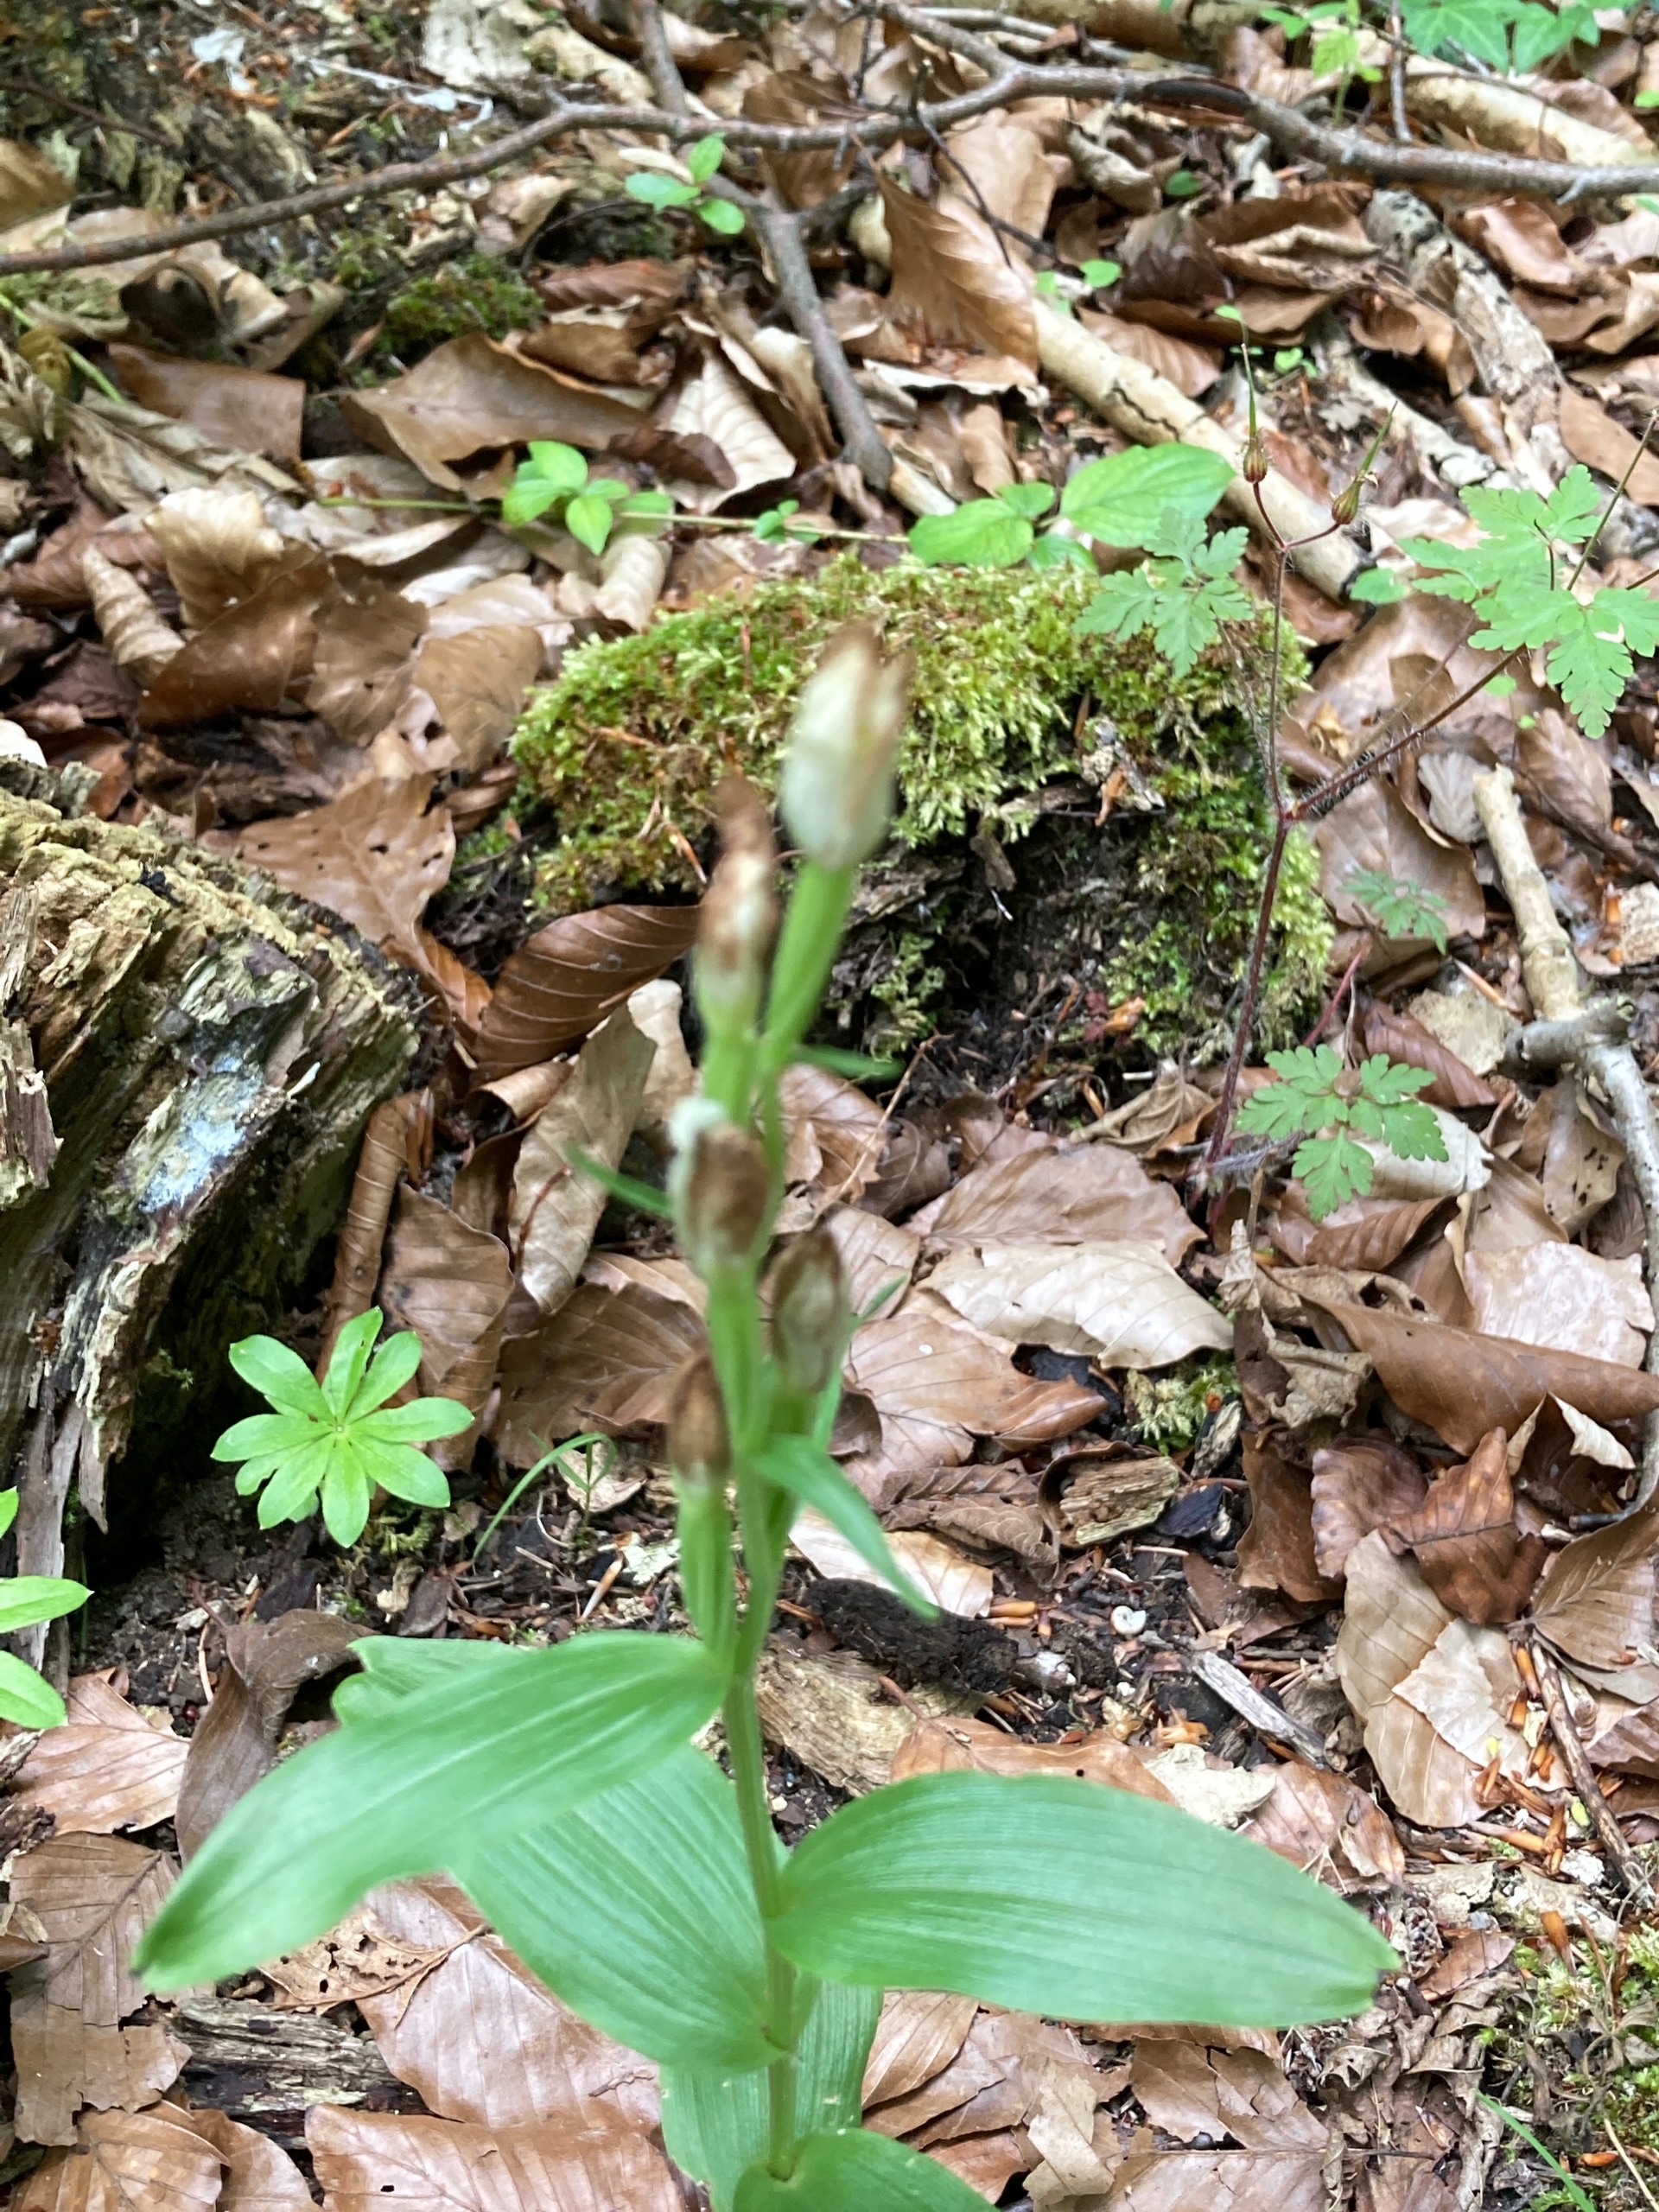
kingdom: Plantae
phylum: Tracheophyta
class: Liliopsida
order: Asparagales
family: Orchidaceae
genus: Cephalanthera
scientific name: Cephalanthera damasonium
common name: Hvidgul skovlilje
